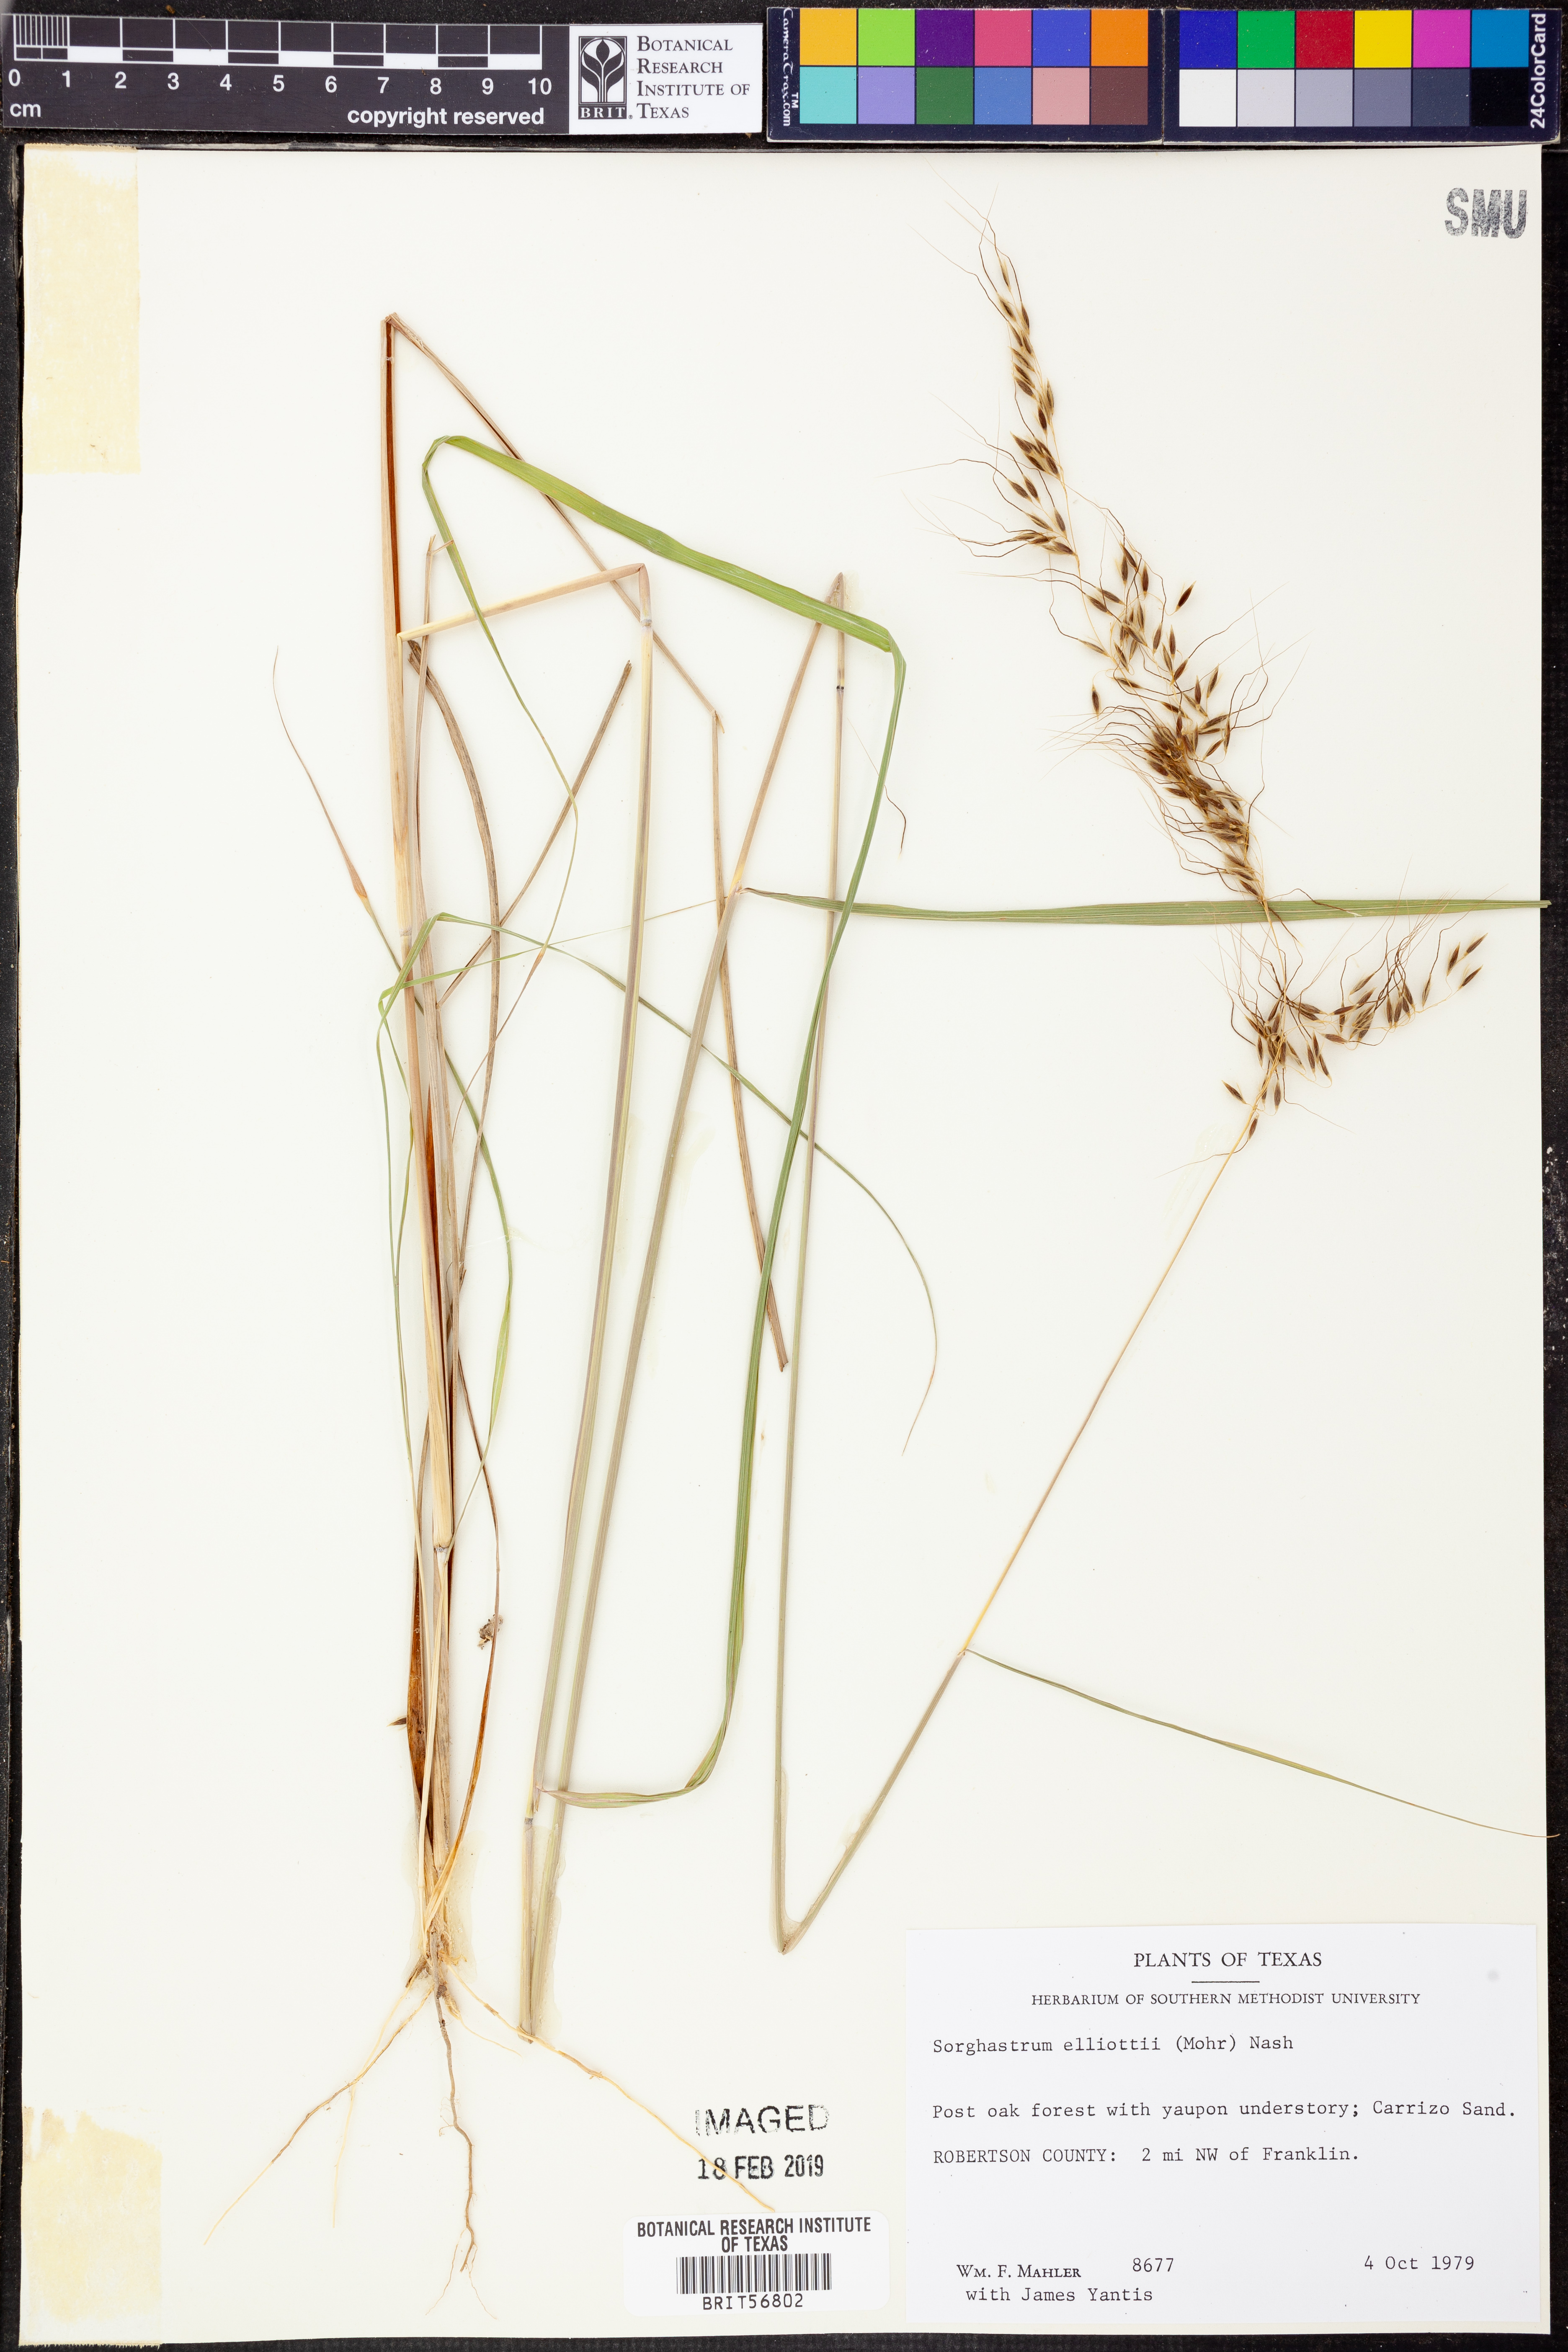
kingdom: Plantae
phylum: Tracheophyta
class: Liliopsida
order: Poales
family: Poaceae
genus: Sorghastrum
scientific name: Sorghastrum elliottii
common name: Slender indian grass
